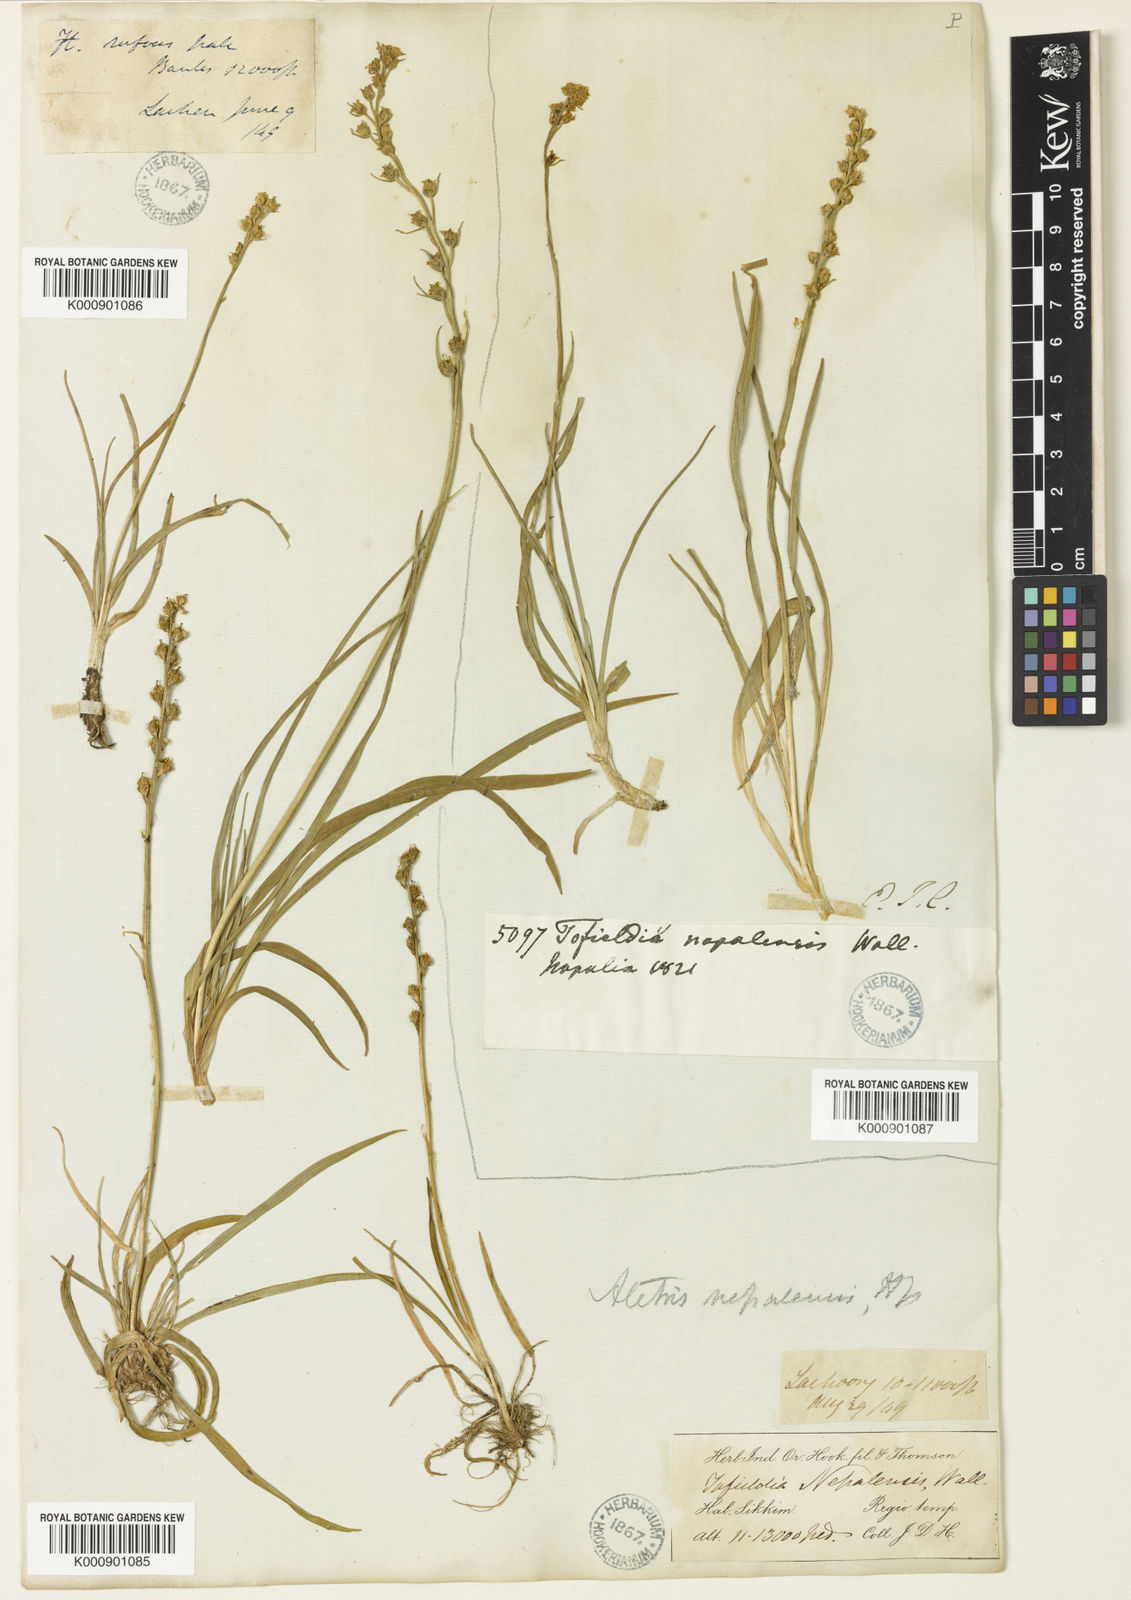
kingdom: Plantae
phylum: Tracheophyta
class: Liliopsida
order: Dioscoreales
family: Nartheciaceae
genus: Aletris
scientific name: Aletris pauciflora
